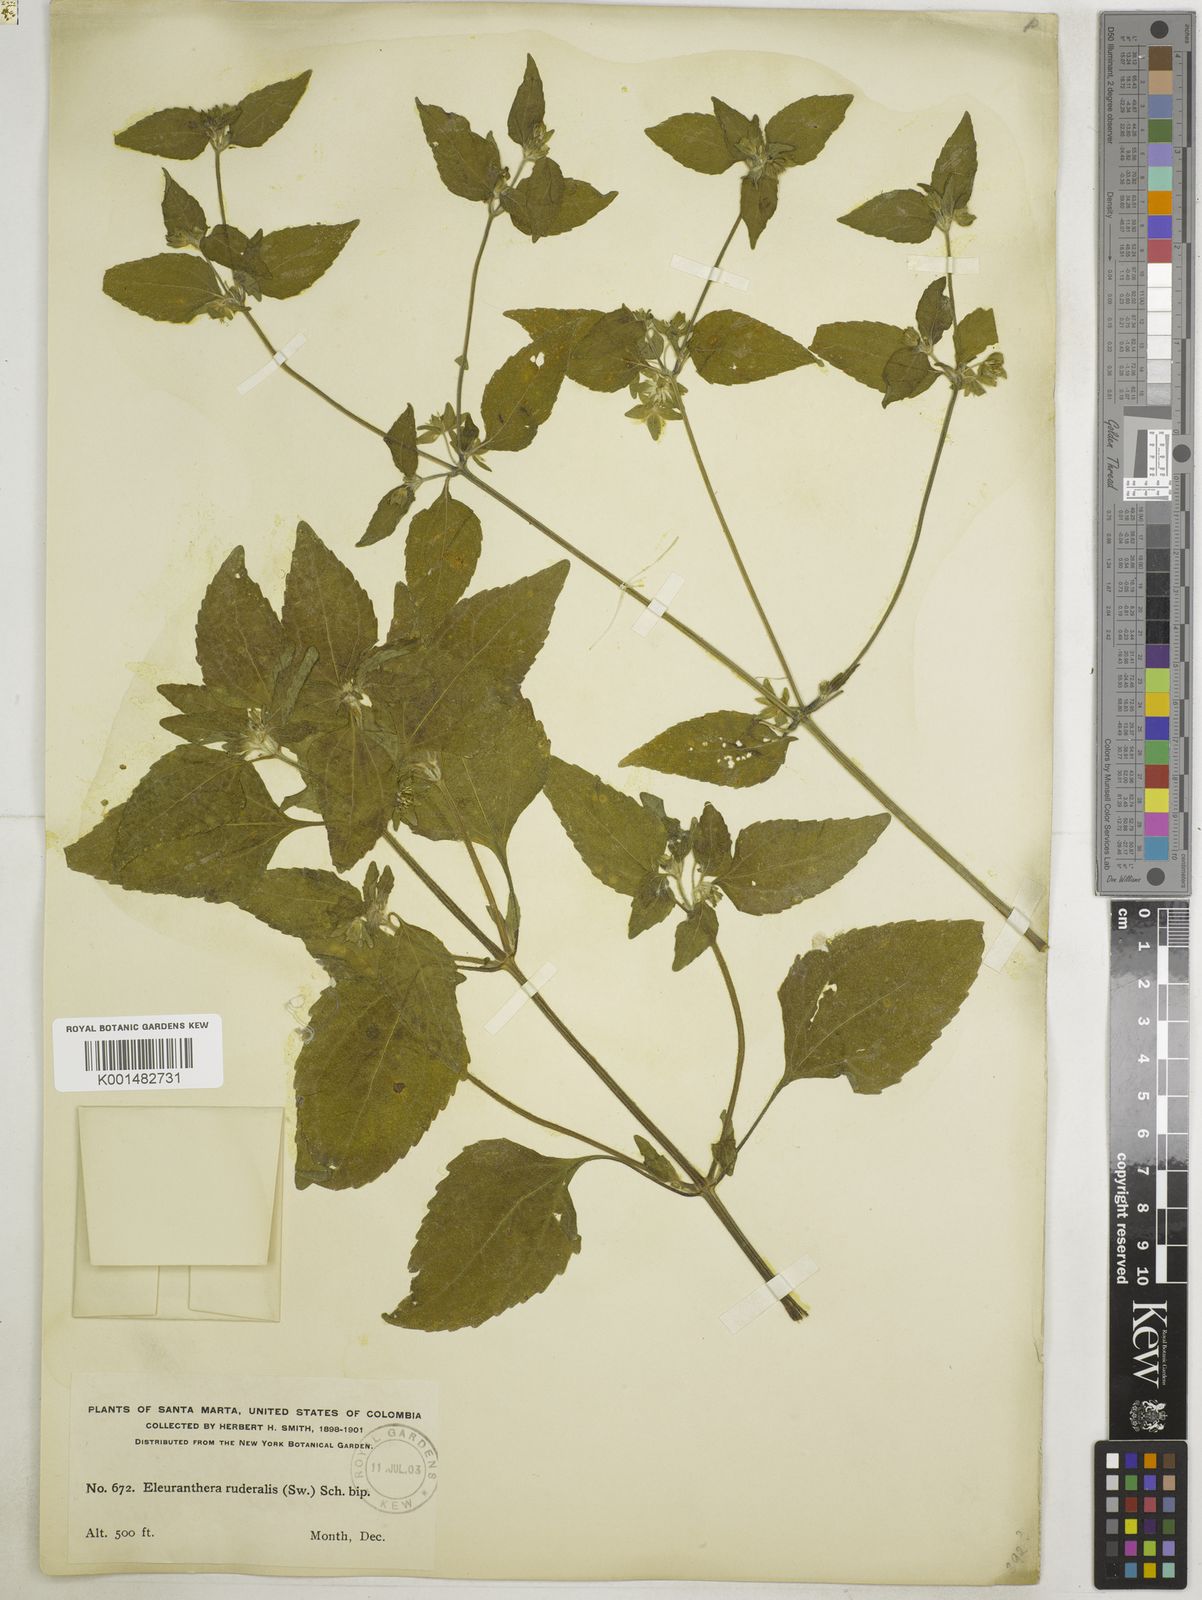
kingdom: Plantae
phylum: Tracheophyta
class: Magnoliopsida
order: Asterales
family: Asteraceae
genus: Eleutheranthera
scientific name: Eleutheranthera ruderalis
